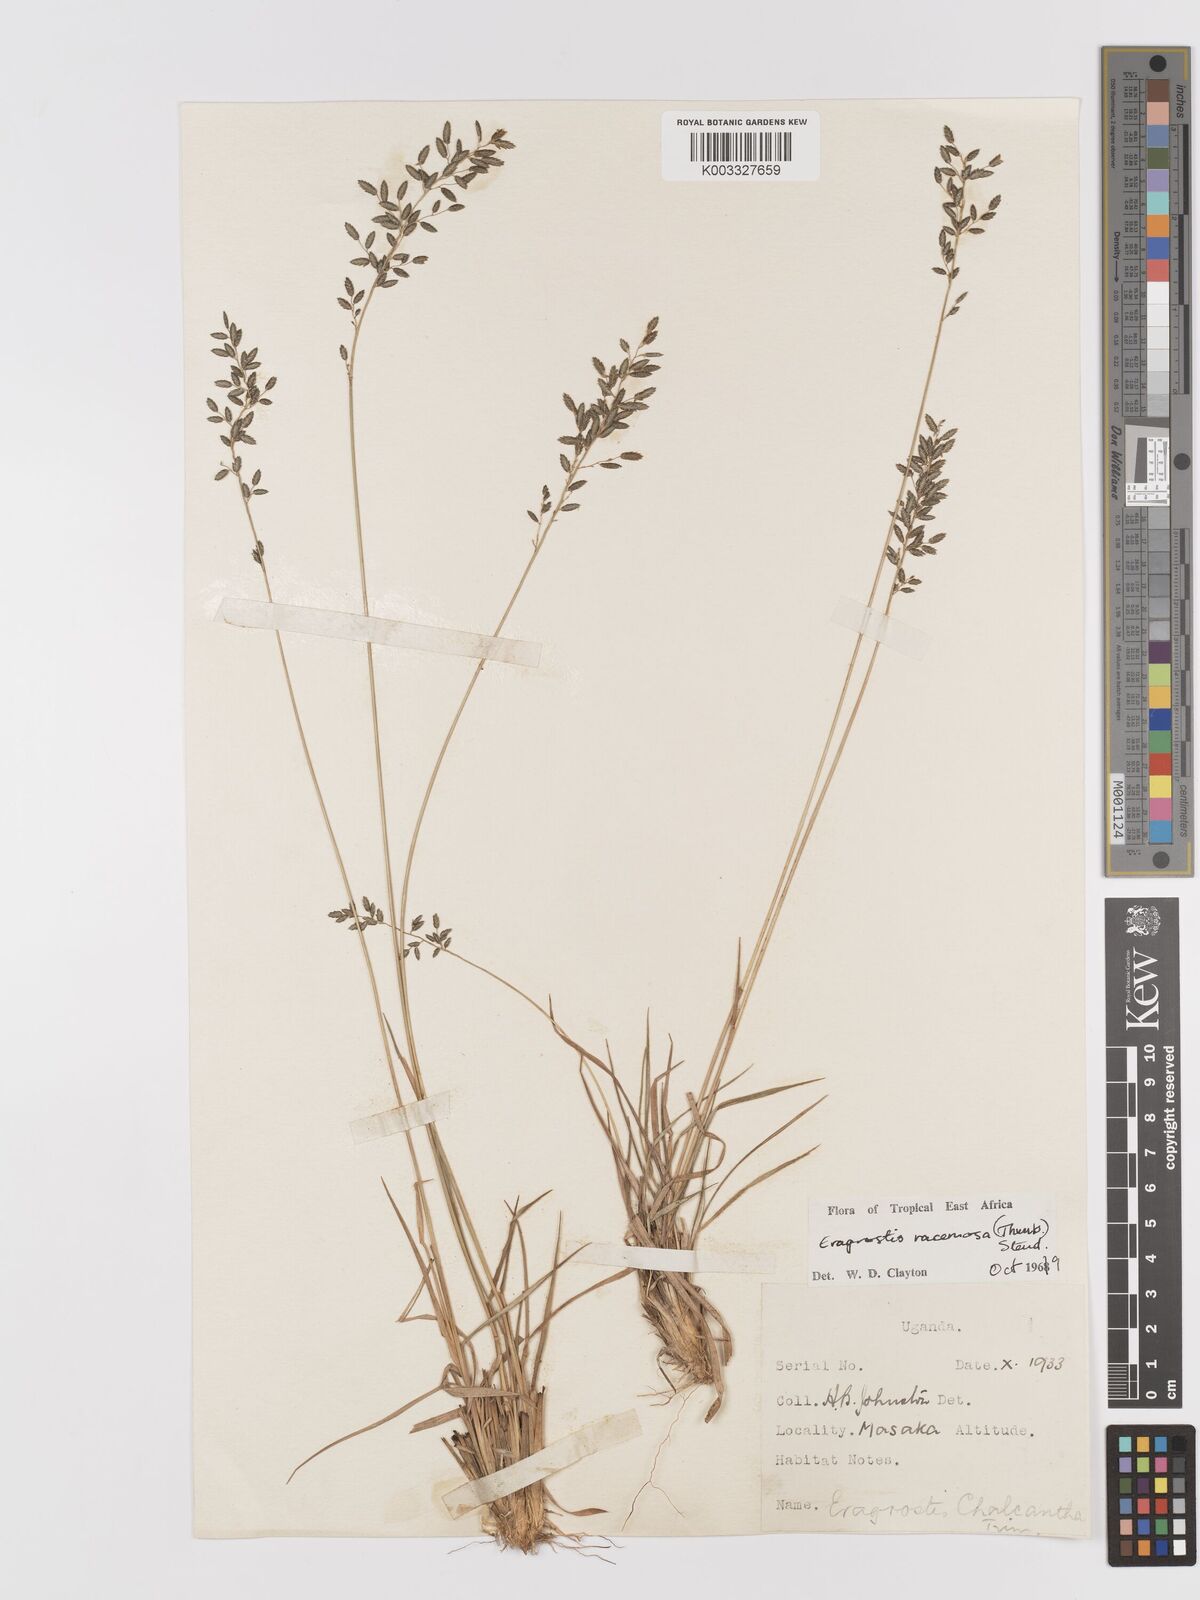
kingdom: Plantae
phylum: Tracheophyta
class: Liliopsida
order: Poales
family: Poaceae
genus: Eragrostis
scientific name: Eragrostis racemosa
